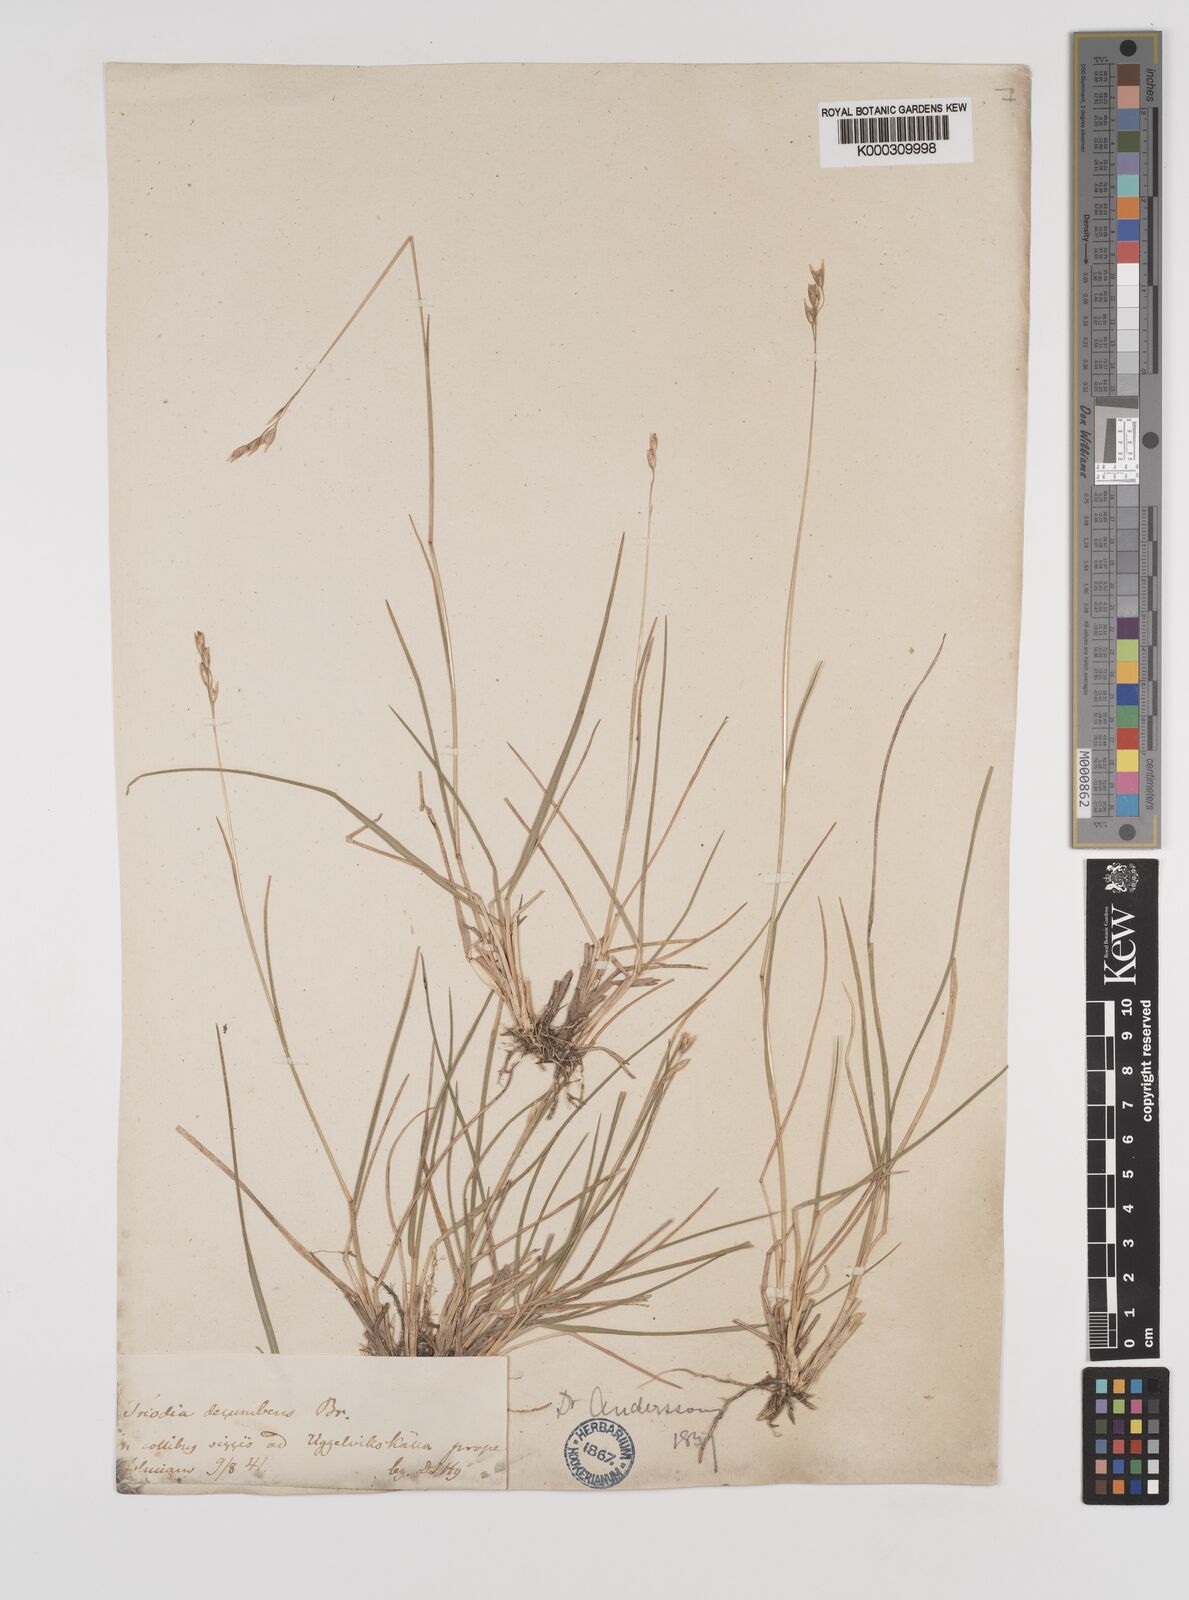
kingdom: Plantae
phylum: Tracheophyta
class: Liliopsida
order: Poales
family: Poaceae
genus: Danthonia
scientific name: Danthonia decumbens
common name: Common heathgrass
